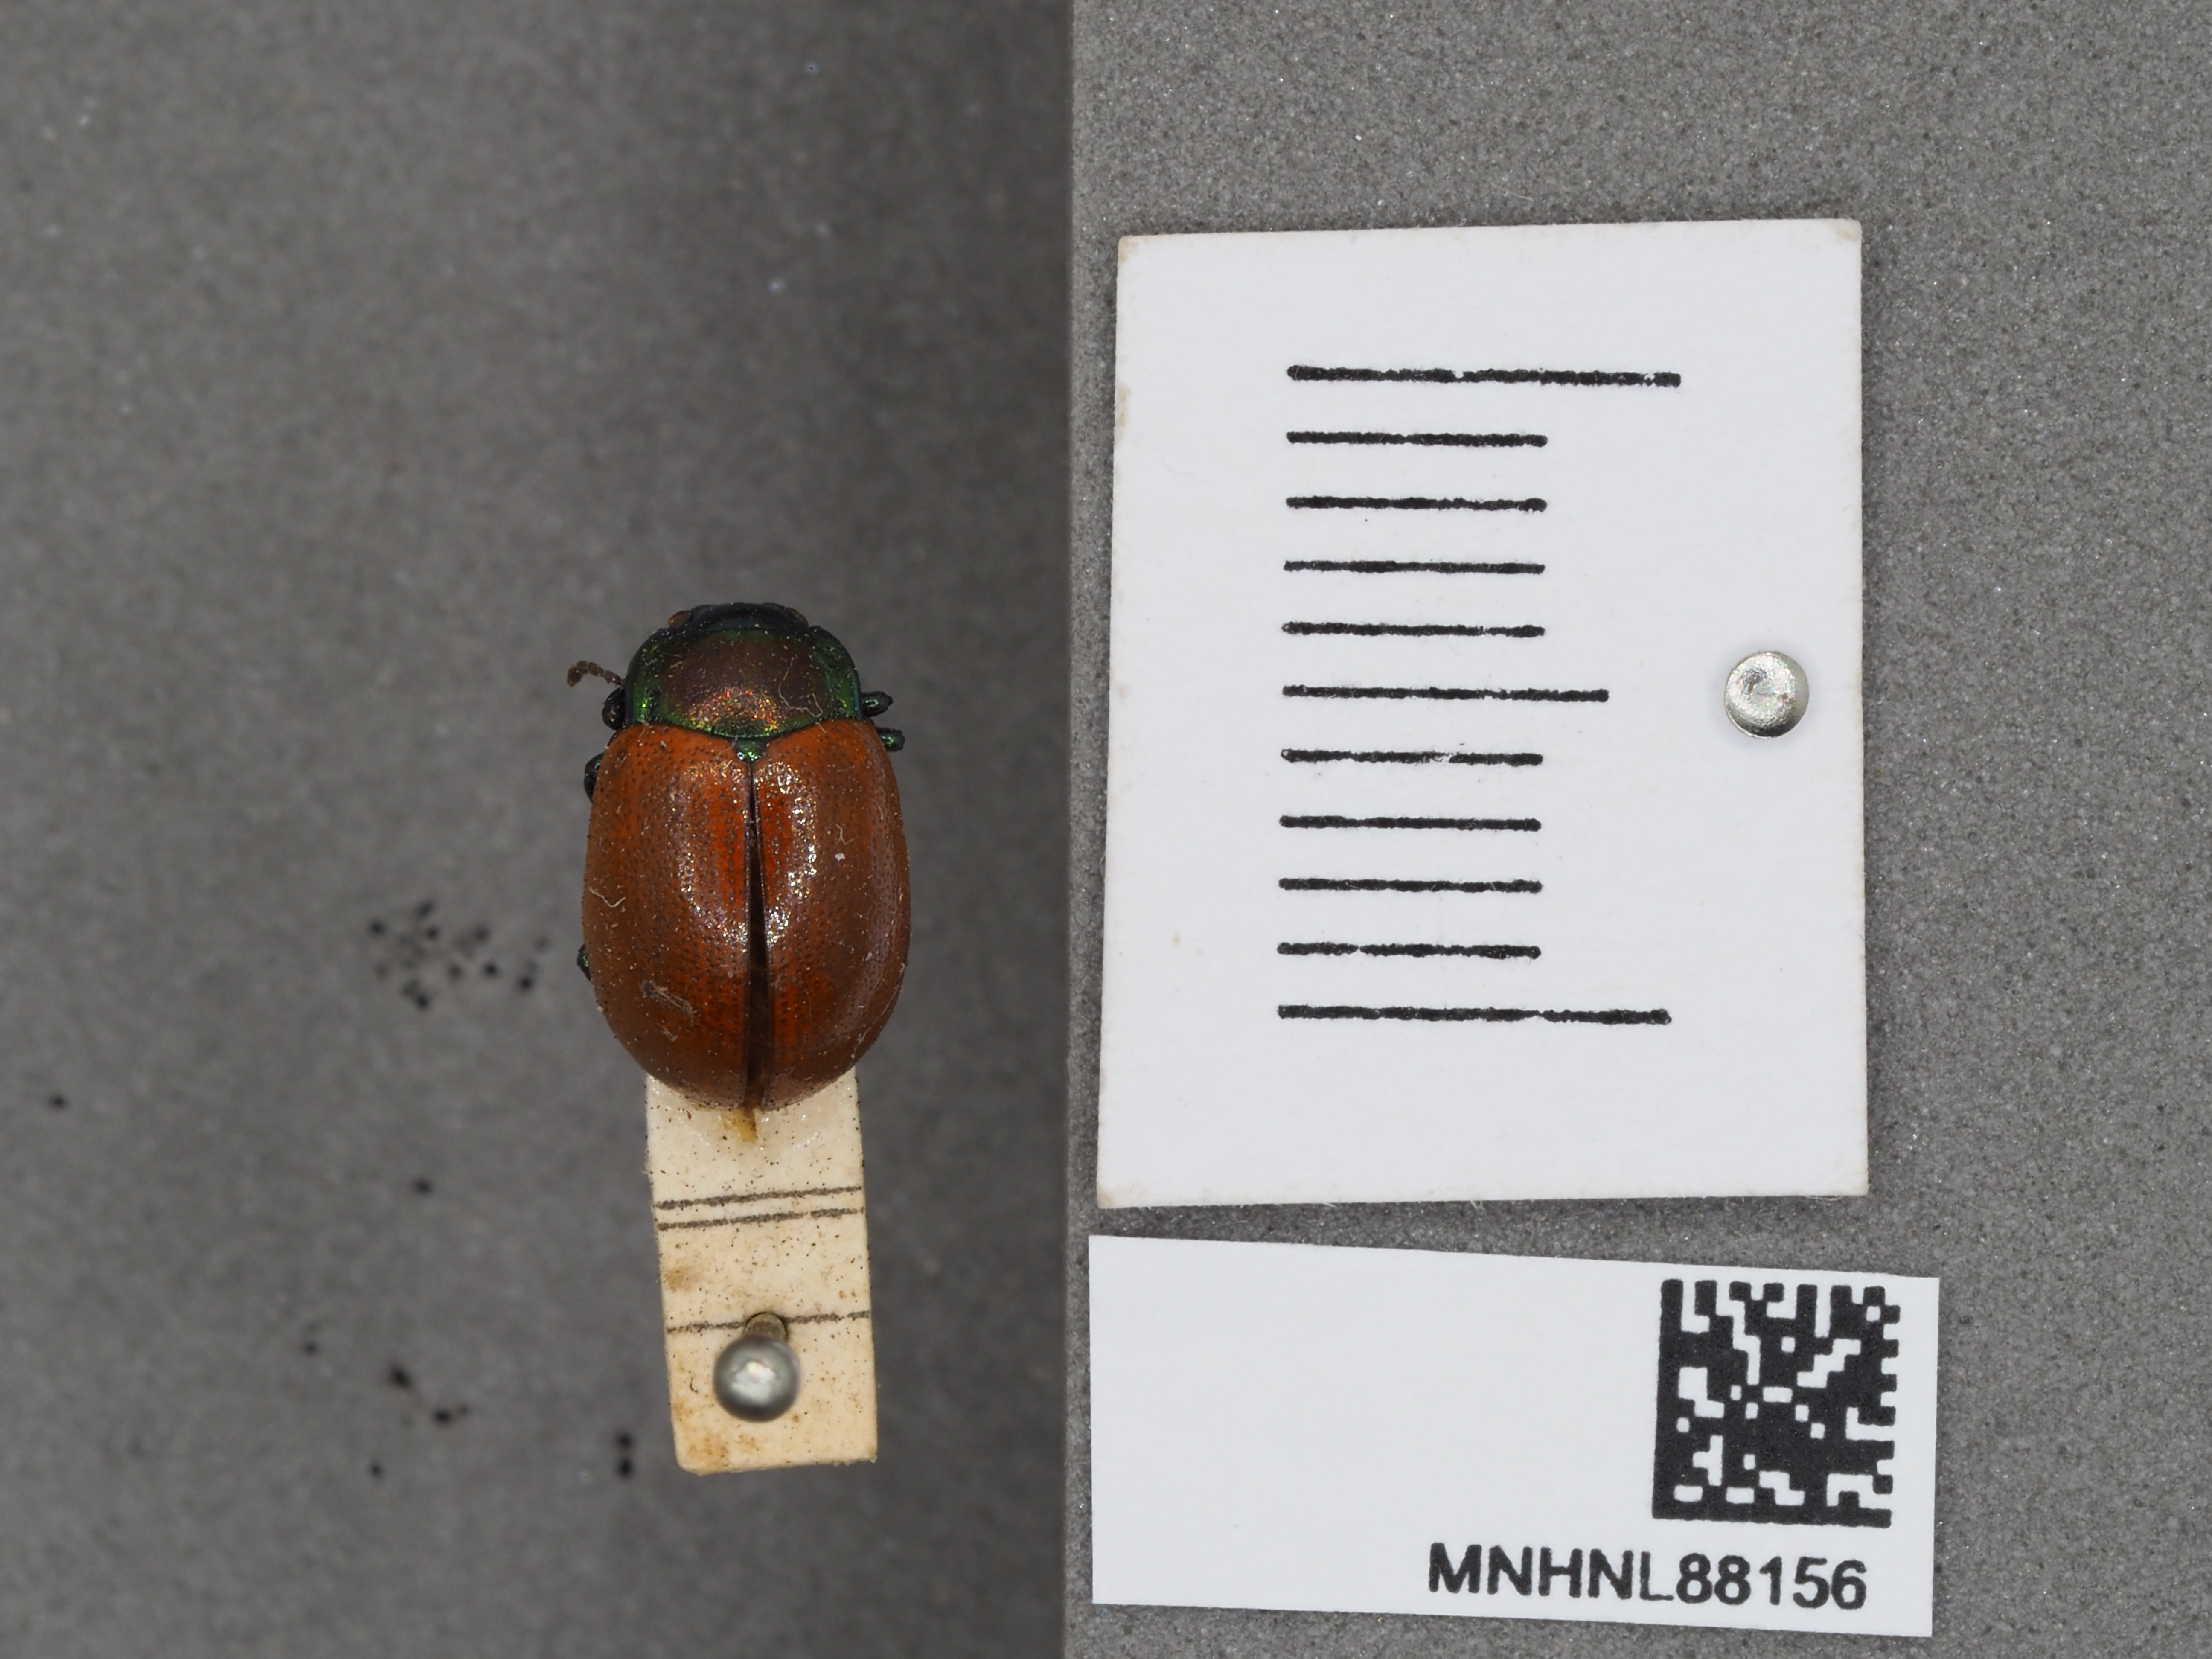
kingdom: Animalia
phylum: Arthropoda
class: Insecta
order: Coleoptera
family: Chrysomelidae
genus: Chrysomela
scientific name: Chrysomela saliceti
